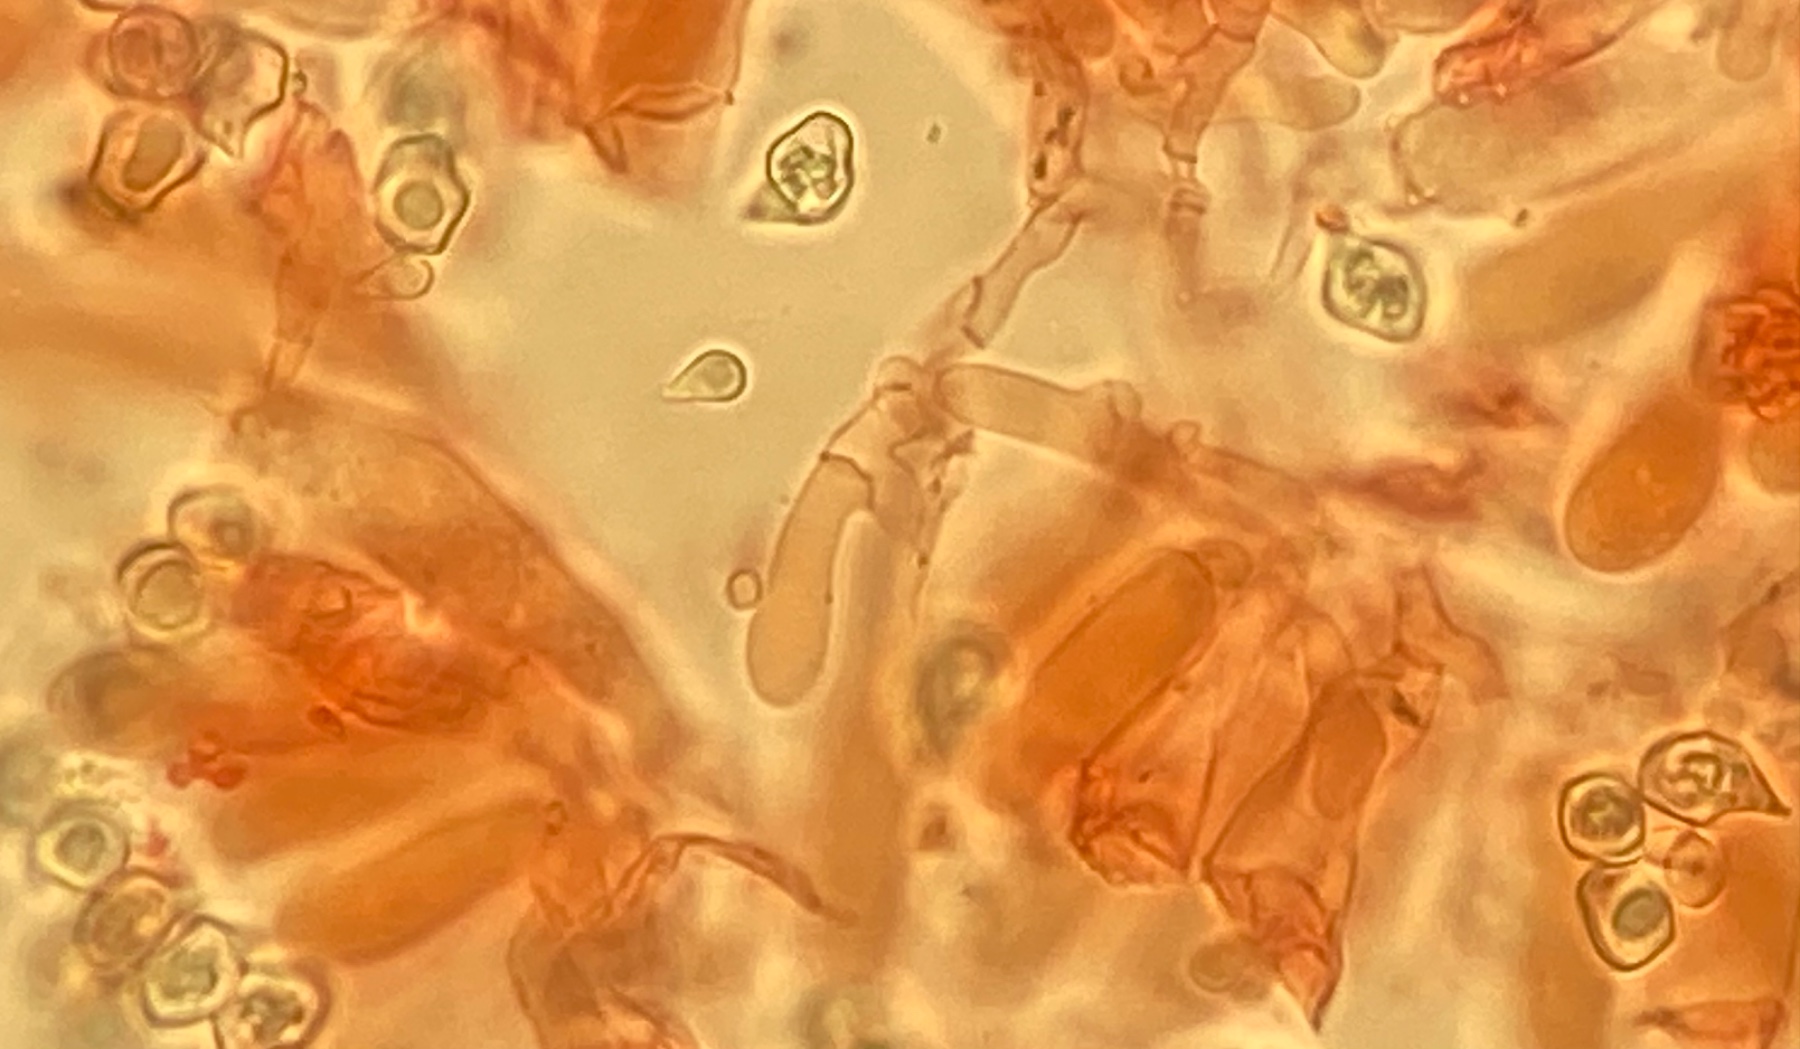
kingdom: Fungi
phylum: Basidiomycota
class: Agaricomycetes
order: Agaricales
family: Entolomataceae
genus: Entoloma
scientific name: Entoloma clandestinum
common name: tykbladet rødblad
